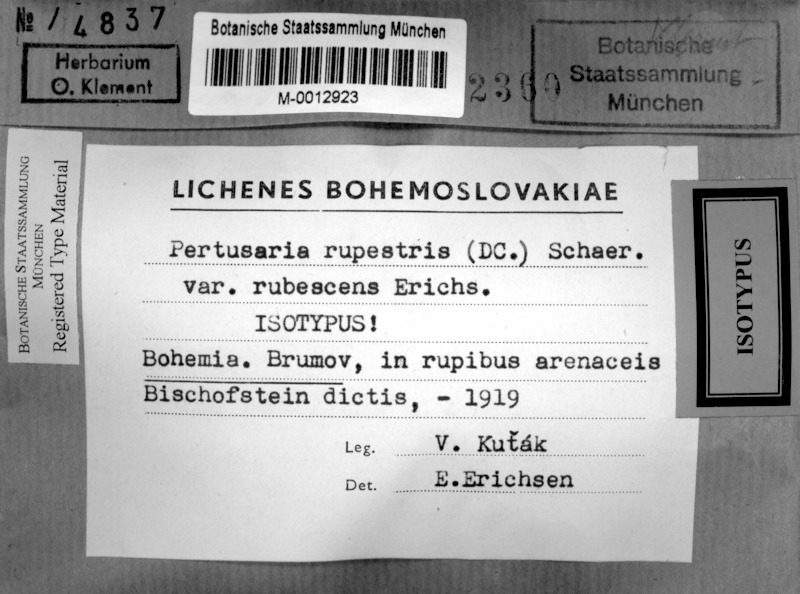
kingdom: Fungi
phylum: Ascomycota
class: Lecanoromycetes
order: Pertusariales
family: Pertusariaceae
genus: Pertusaria
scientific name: Pertusaria pertusa
